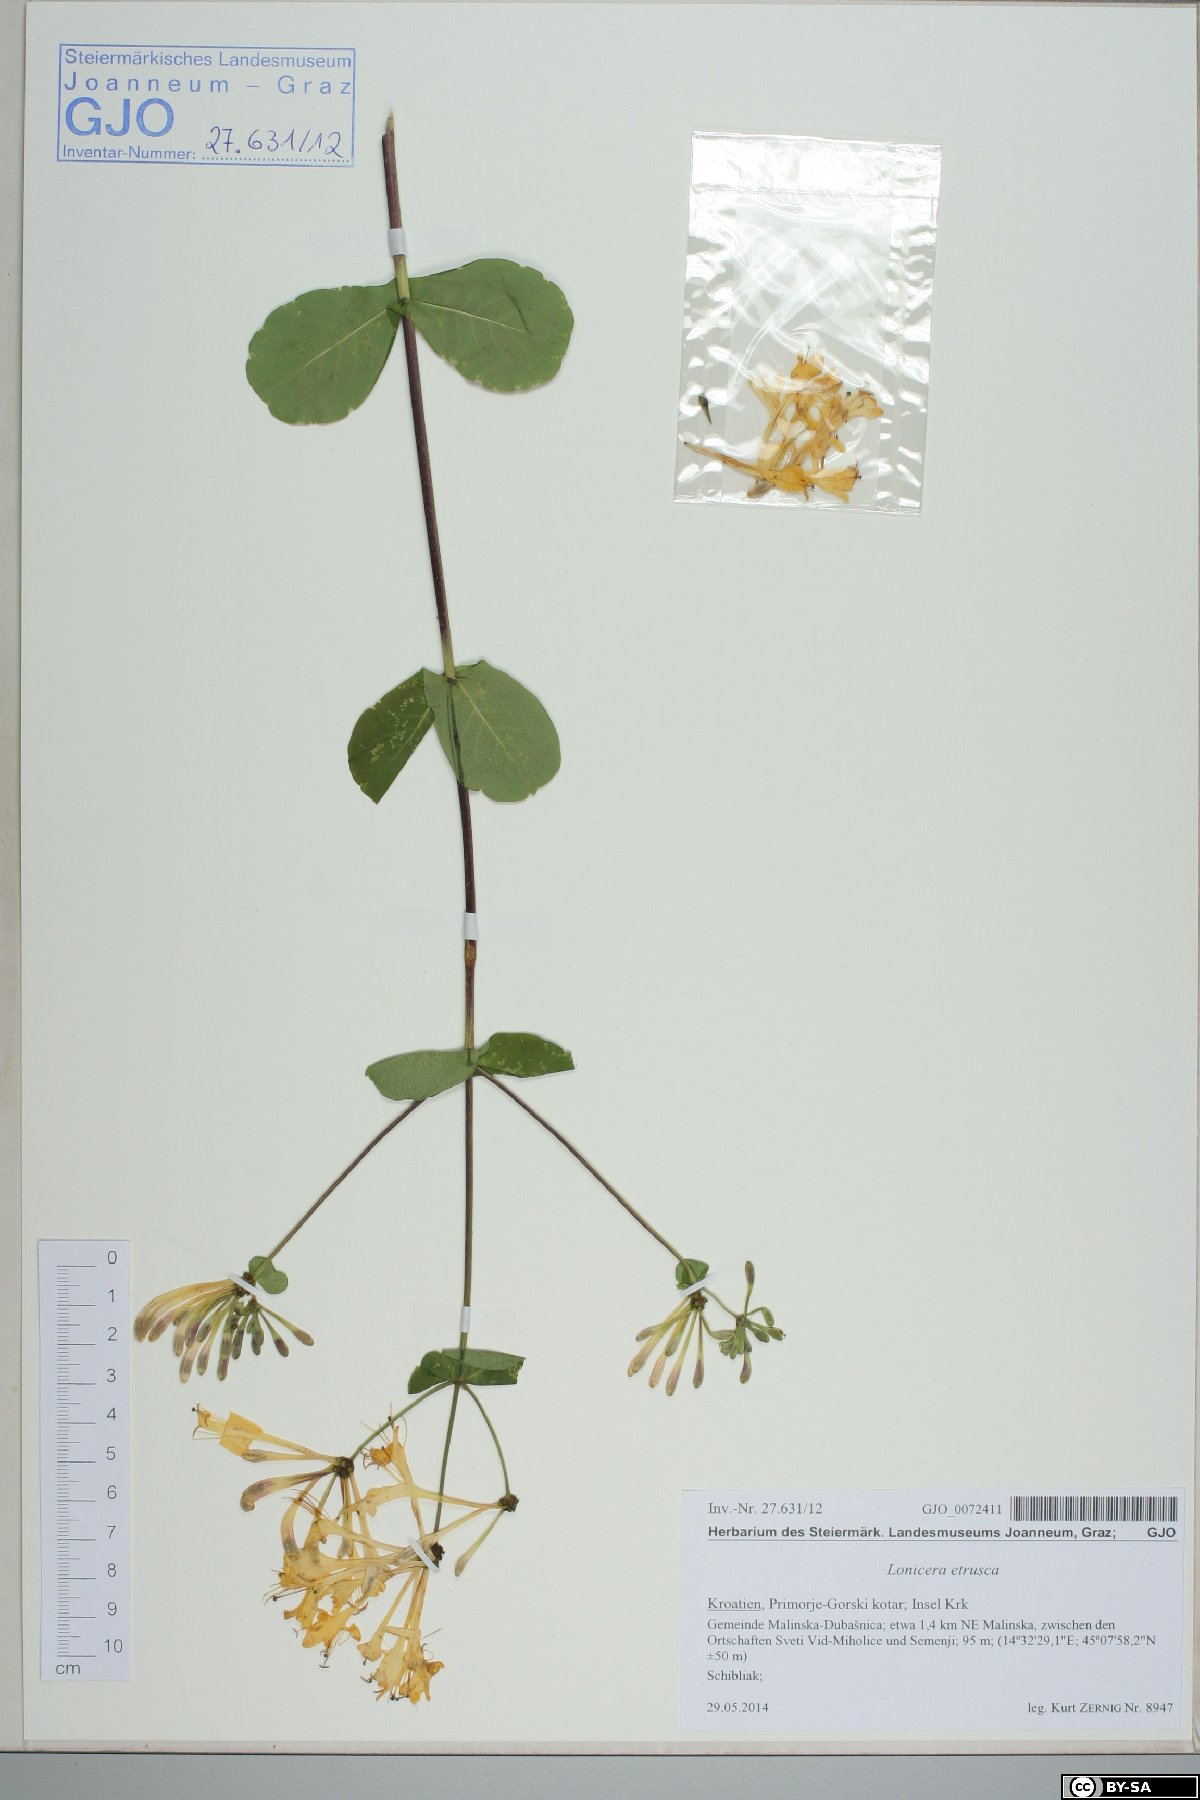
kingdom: Plantae
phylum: Tracheophyta
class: Magnoliopsida
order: Dipsacales
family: Caprifoliaceae
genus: Lonicera
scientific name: Lonicera etrusca
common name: Etruscan honeysuckle
